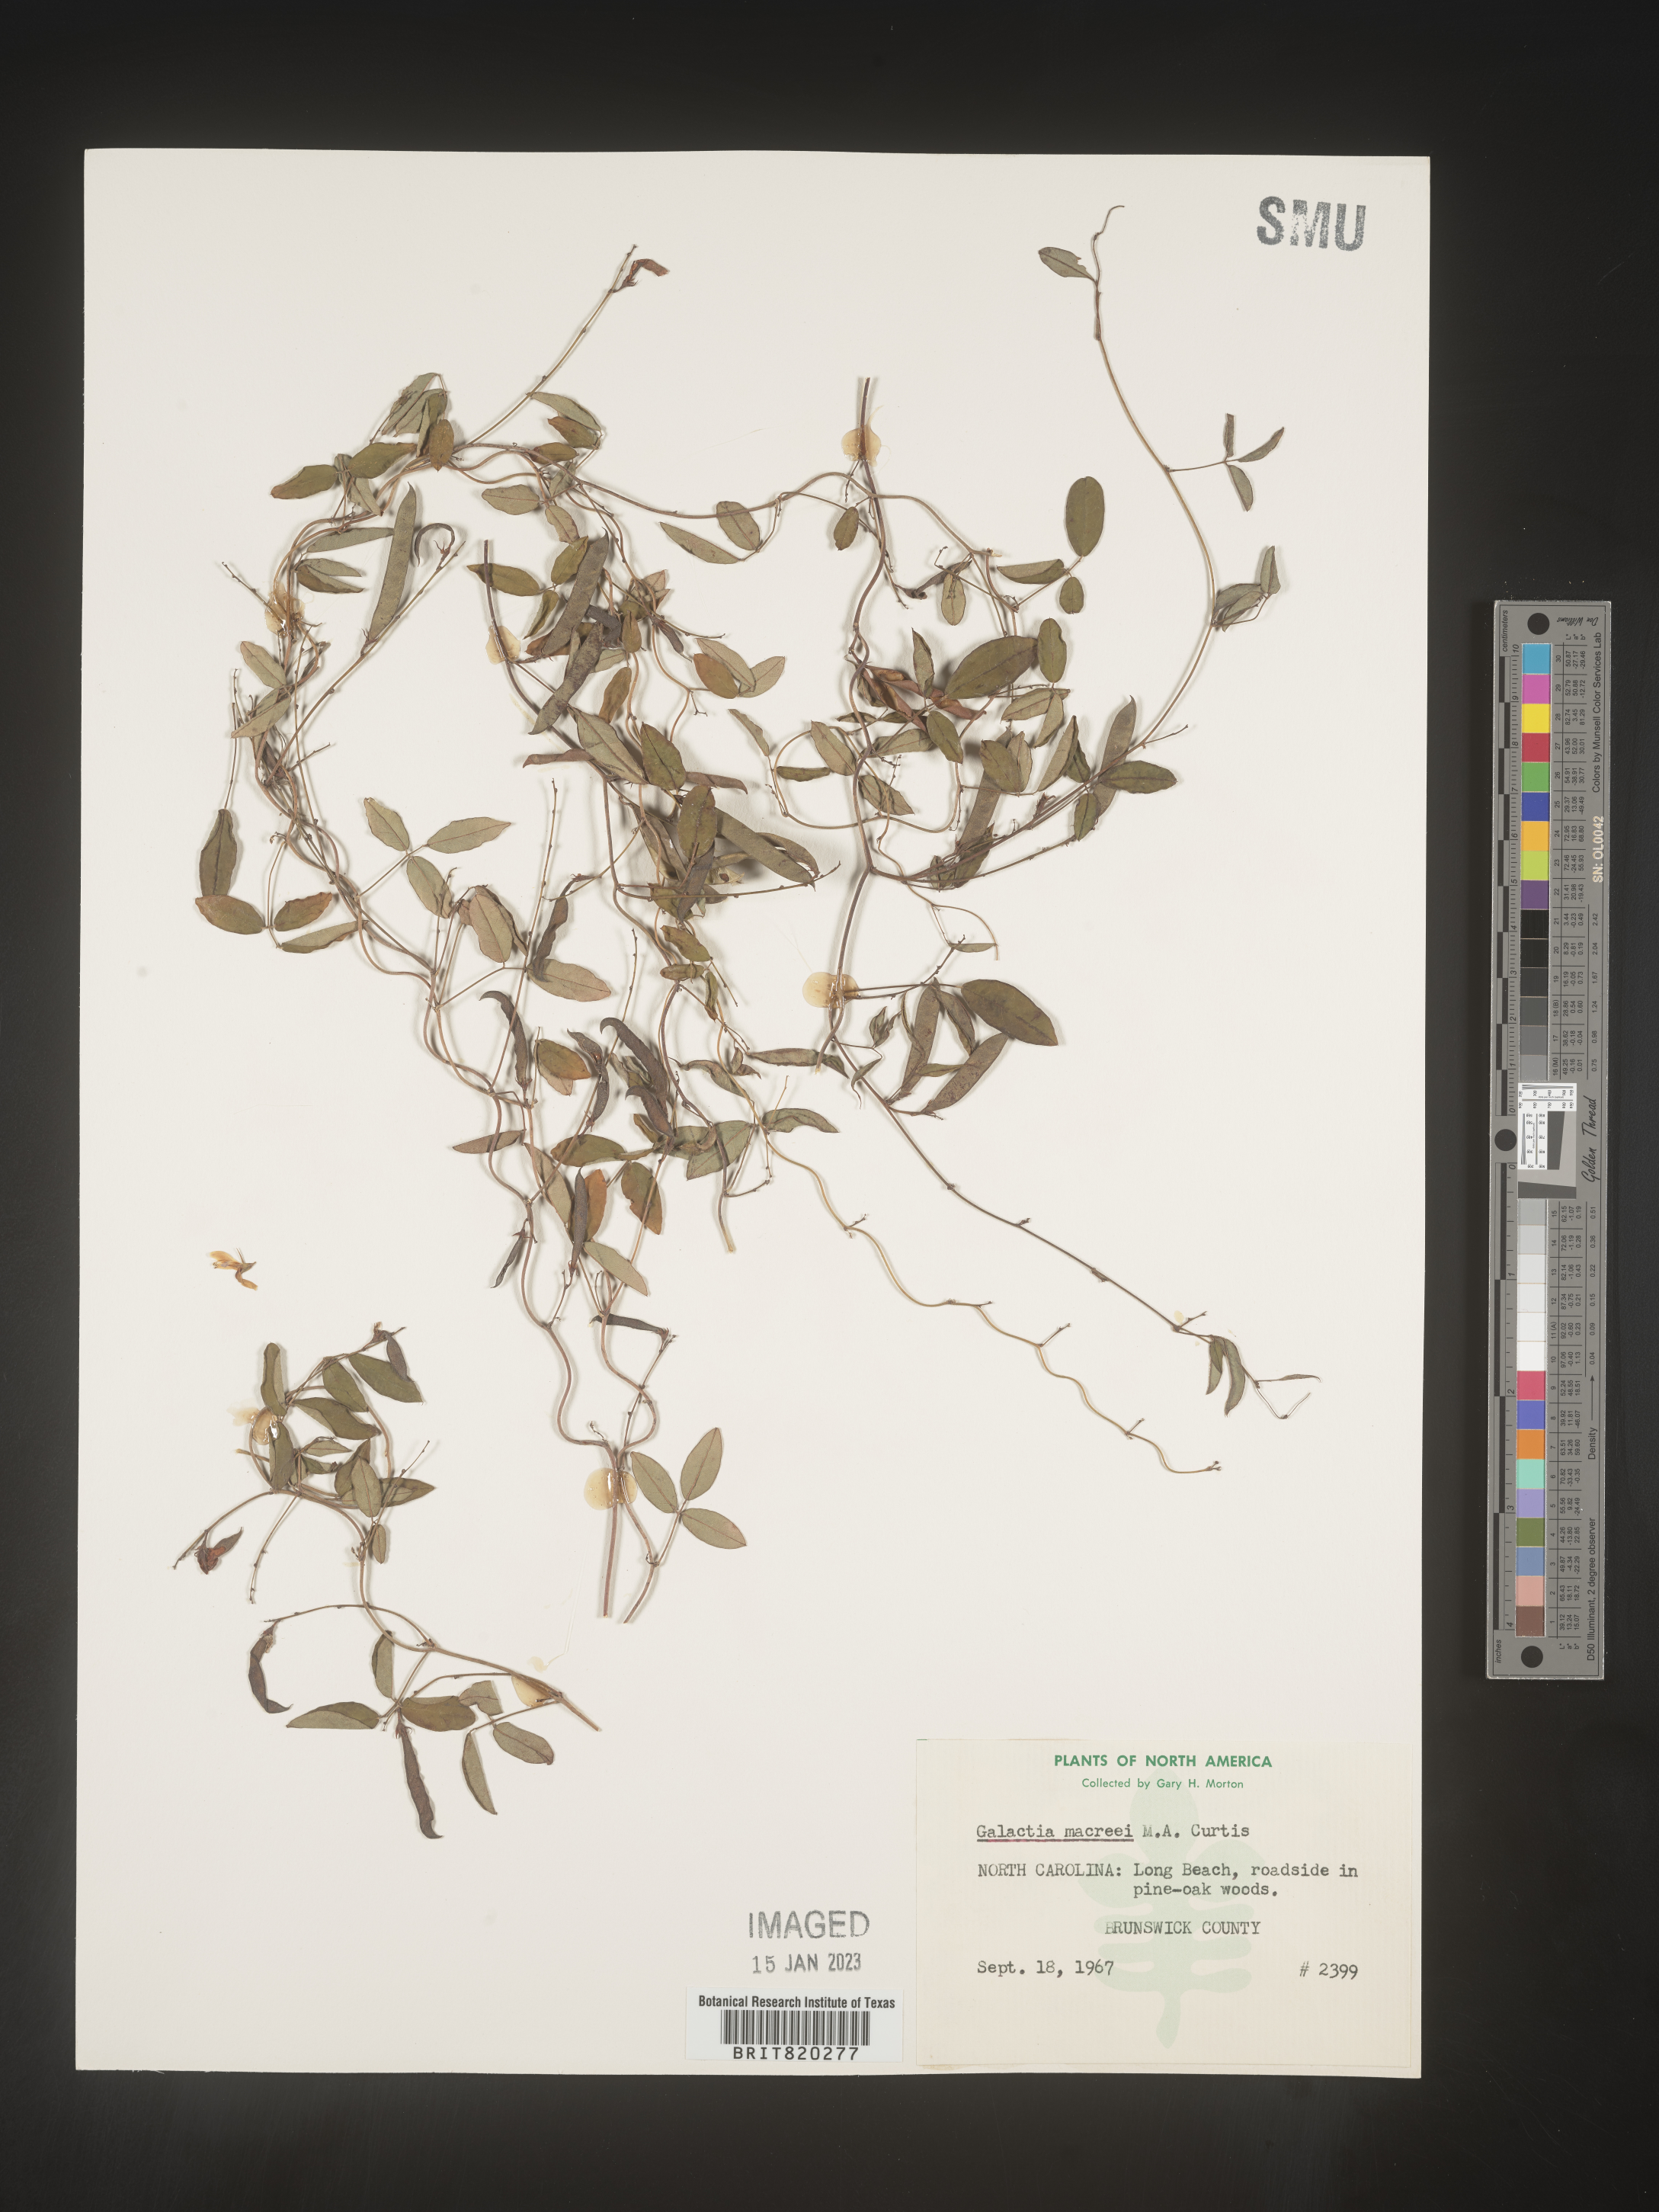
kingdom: Plantae
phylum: Tracheophyta
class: Magnoliopsida
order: Fabales
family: Fabaceae
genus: Galactia
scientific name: Galactia volubilis
